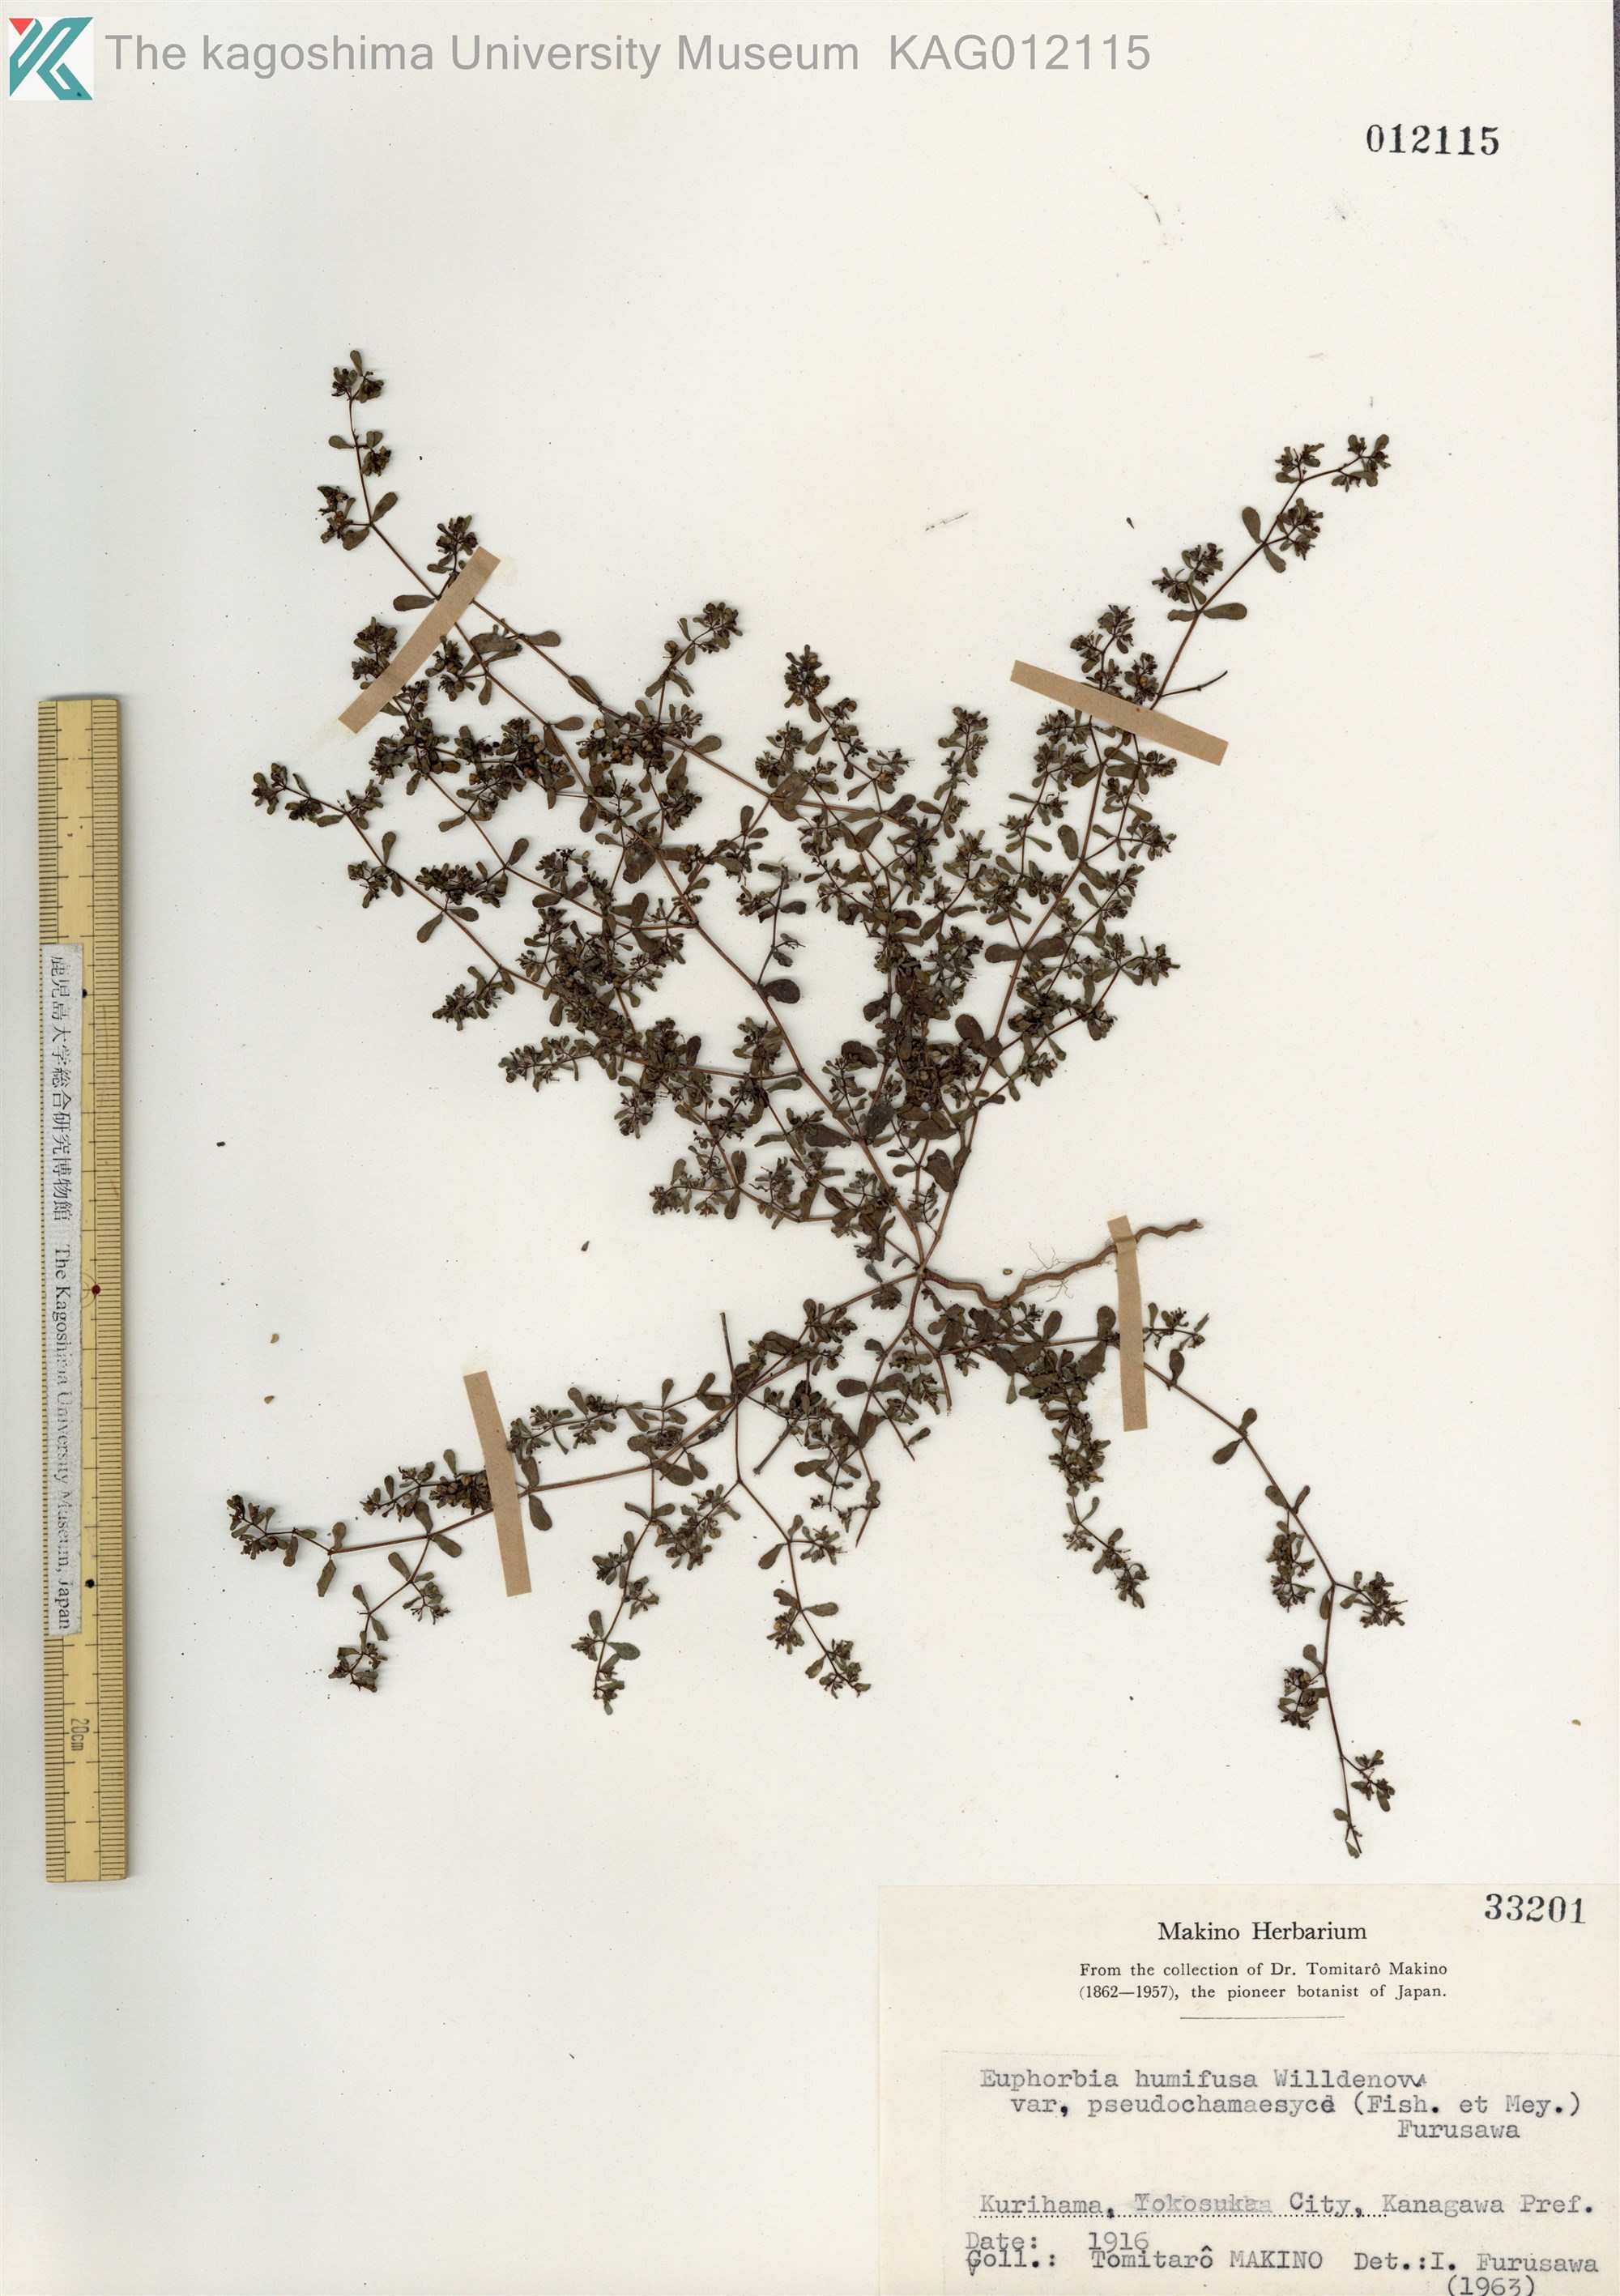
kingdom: Plantae
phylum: Tracheophyta
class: Magnoliopsida
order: Malpighiales
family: Euphorbiaceae
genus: Euphorbia
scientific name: Euphorbia humifusa
